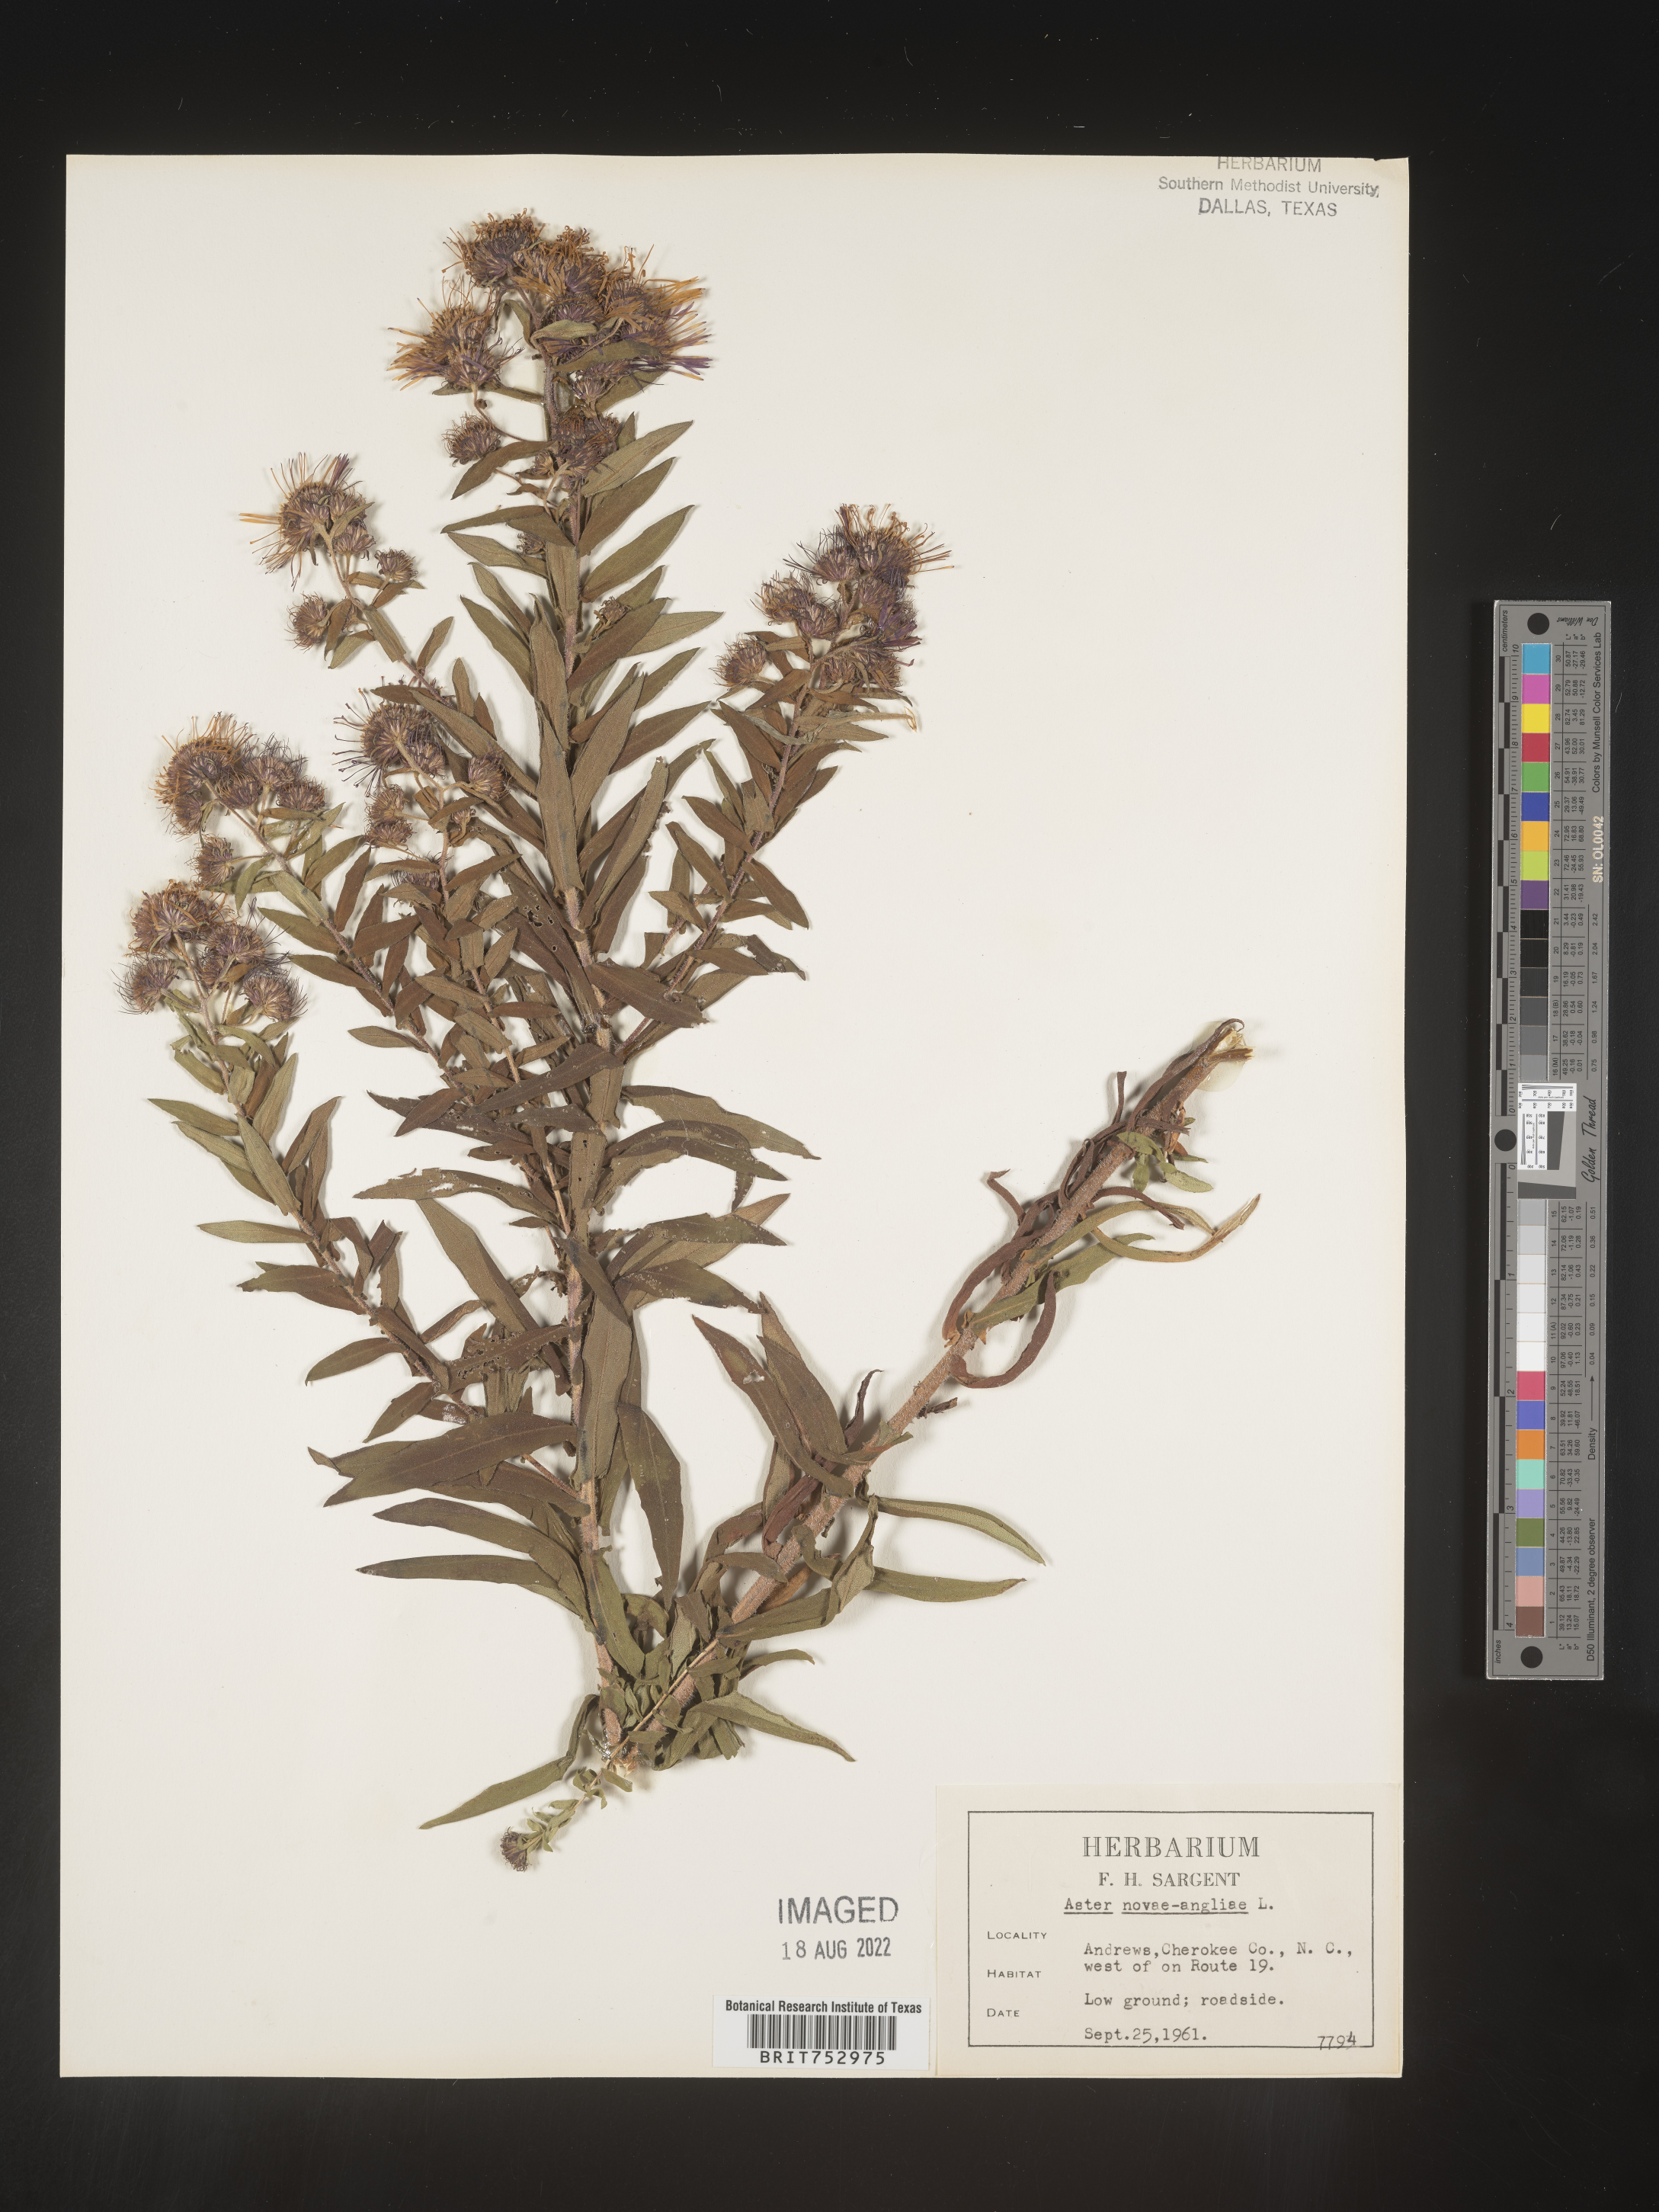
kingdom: Plantae
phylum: Tracheophyta
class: Magnoliopsida
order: Asterales
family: Asteraceae
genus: Symphyotrichum
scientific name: Symphyotrichum novae-angliae
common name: Michaelmas daisy
